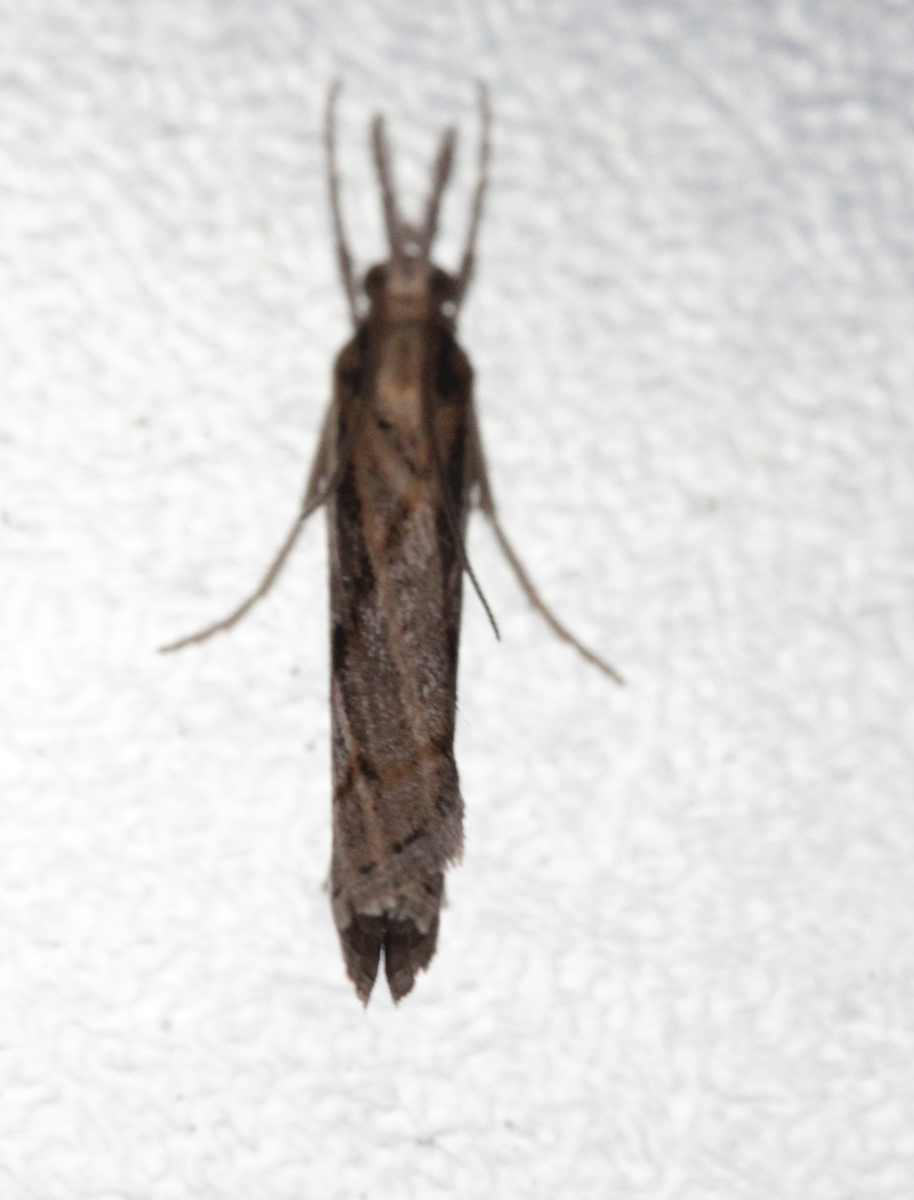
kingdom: Animalia
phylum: Arthropoda
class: Insecta
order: Lepidoptera
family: Crambidae
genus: Pediasia
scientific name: Pediasia aridella
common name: Salt-marsh grass-veneer
